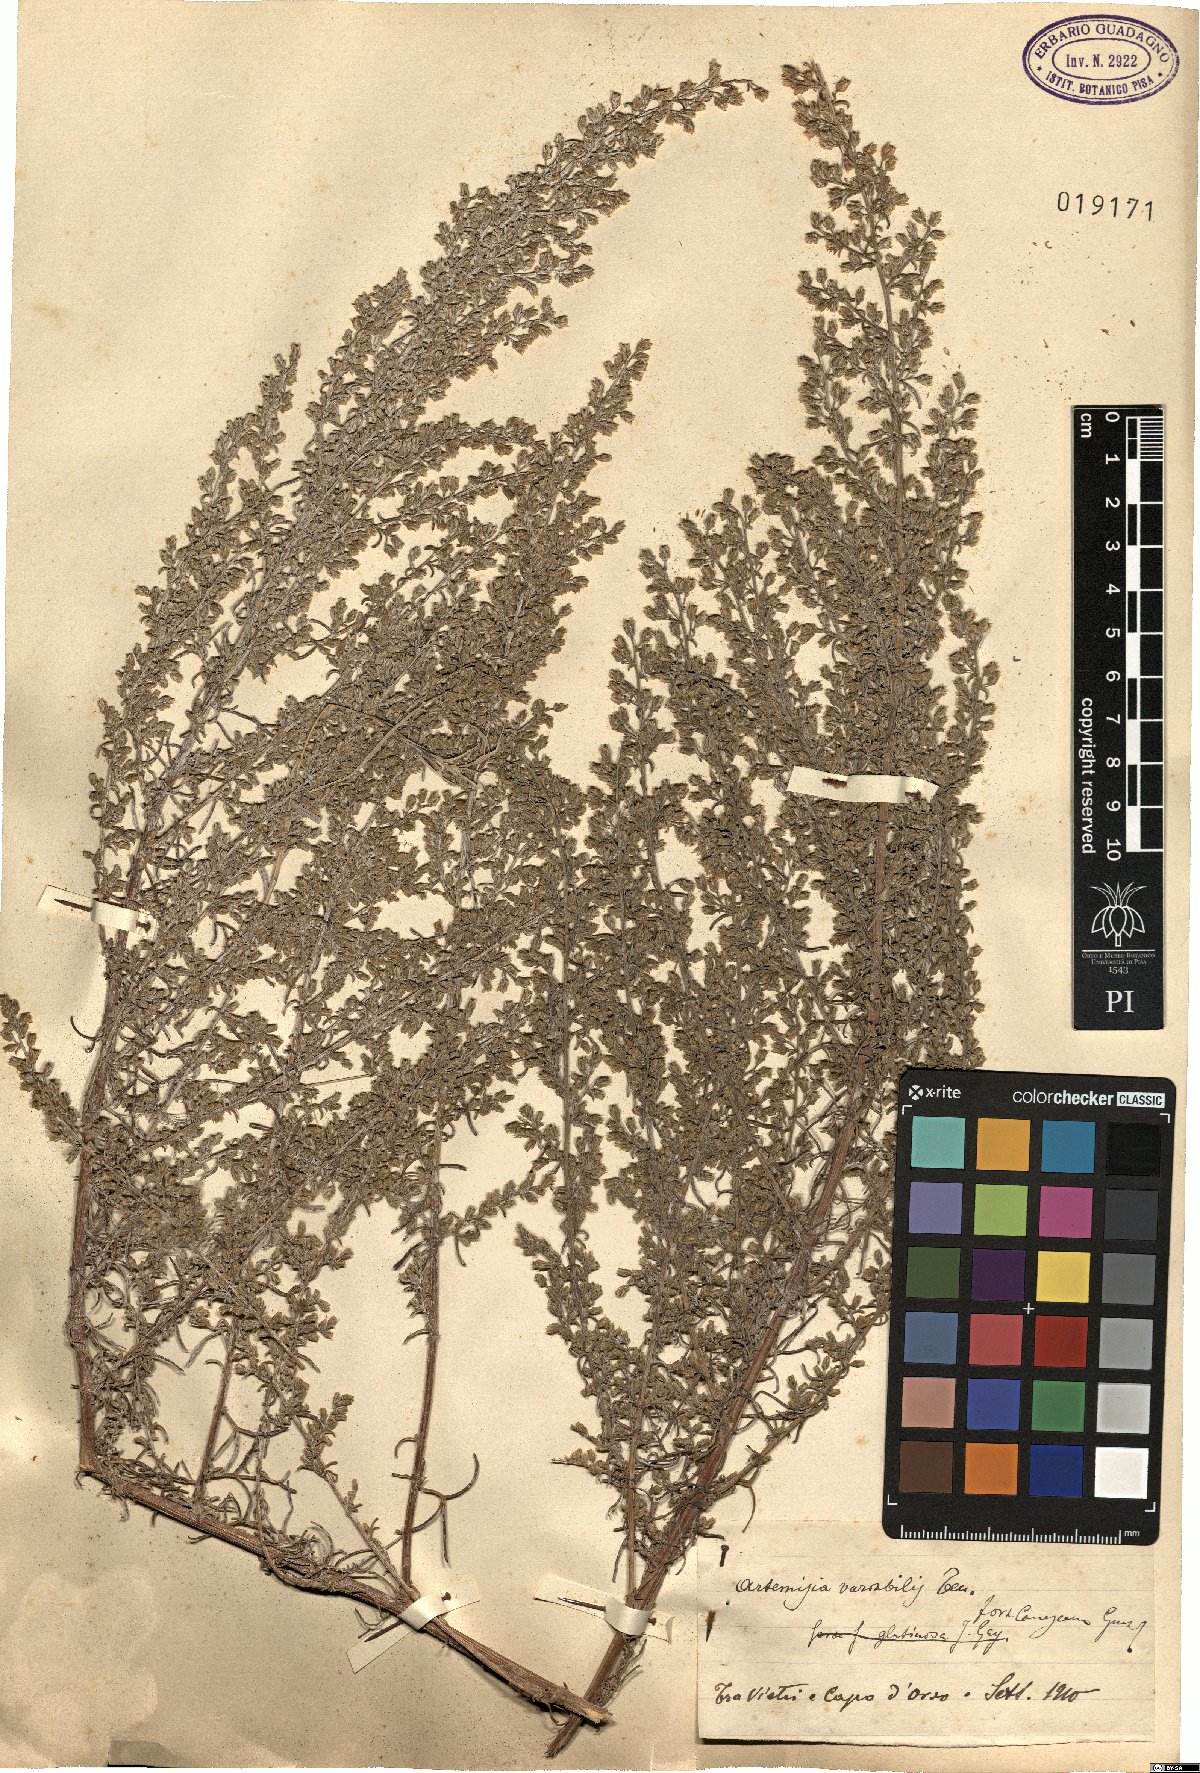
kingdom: Plantae
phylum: Tracheophyta
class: Magnoliopsida
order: Asterales
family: Asteraceae
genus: Artemisia
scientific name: Artemisia campestris
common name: Field wormwood
